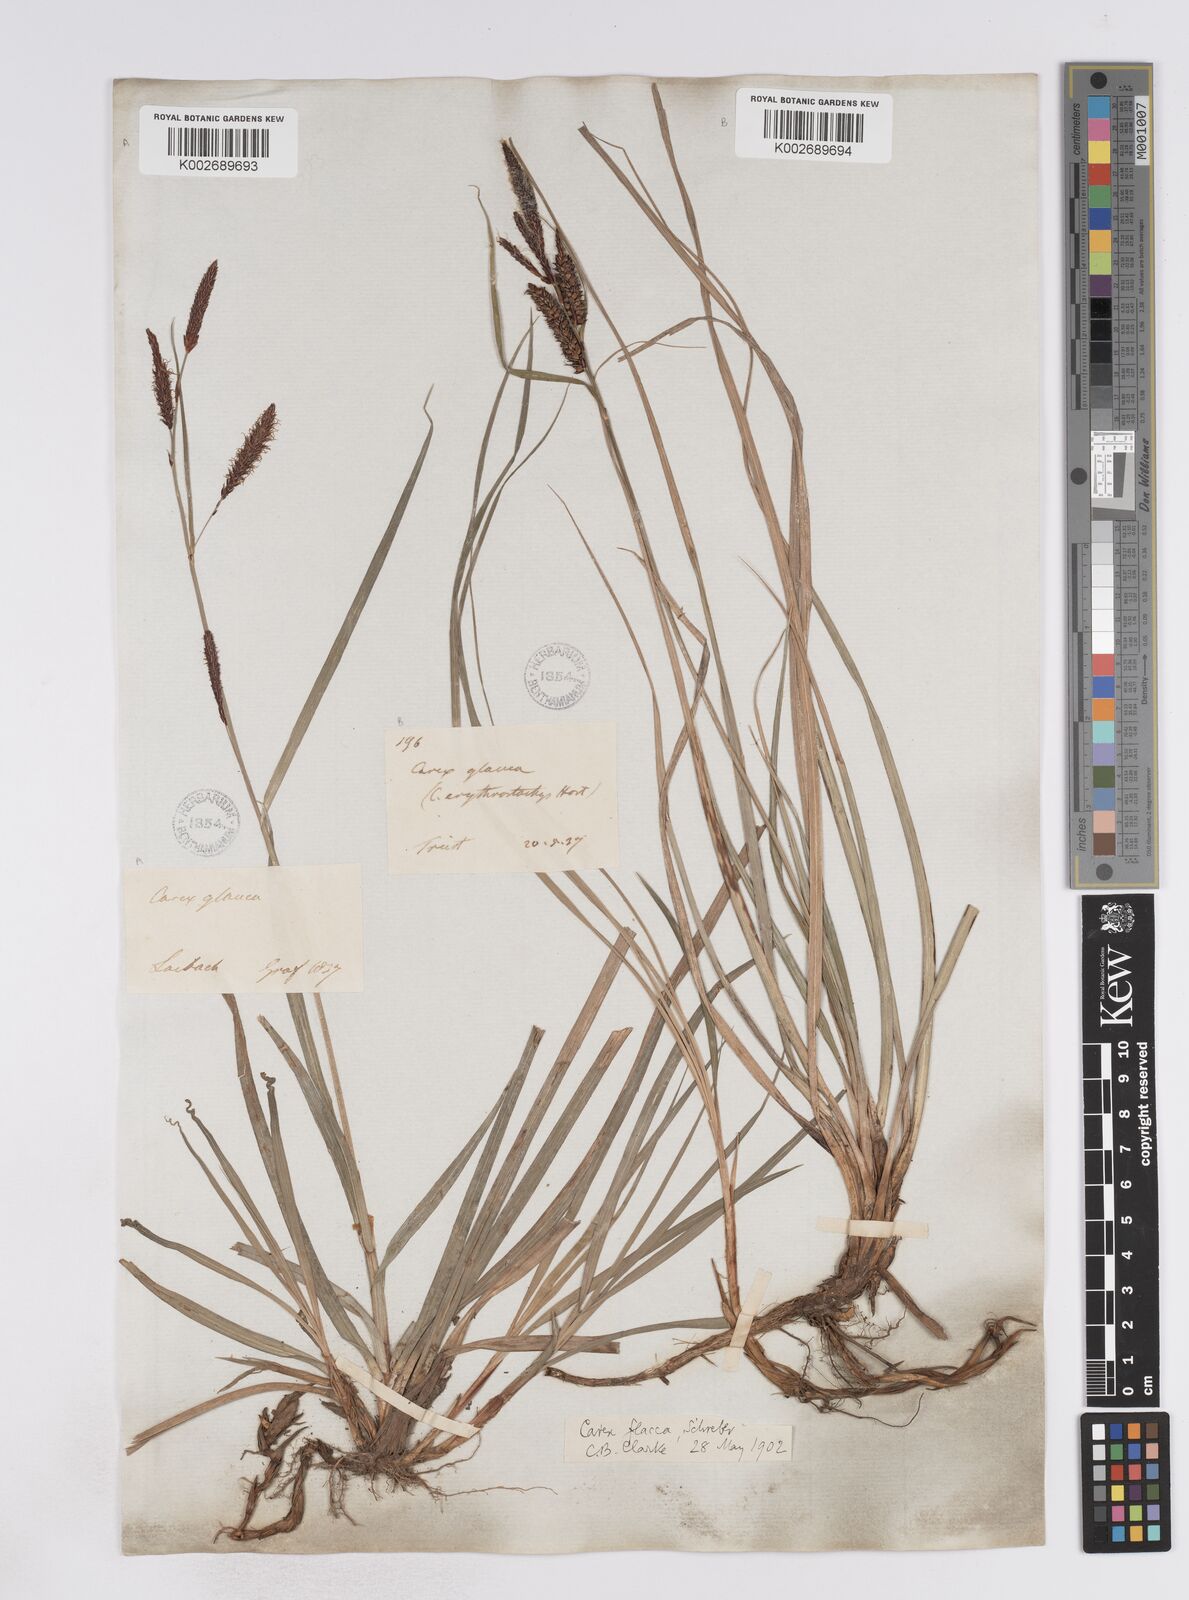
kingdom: Plantae
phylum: Tracheophyta
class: Liliopsida
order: Poales
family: Cyperaceae
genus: Carex
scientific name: Carex flacca
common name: Glaucous sedge
